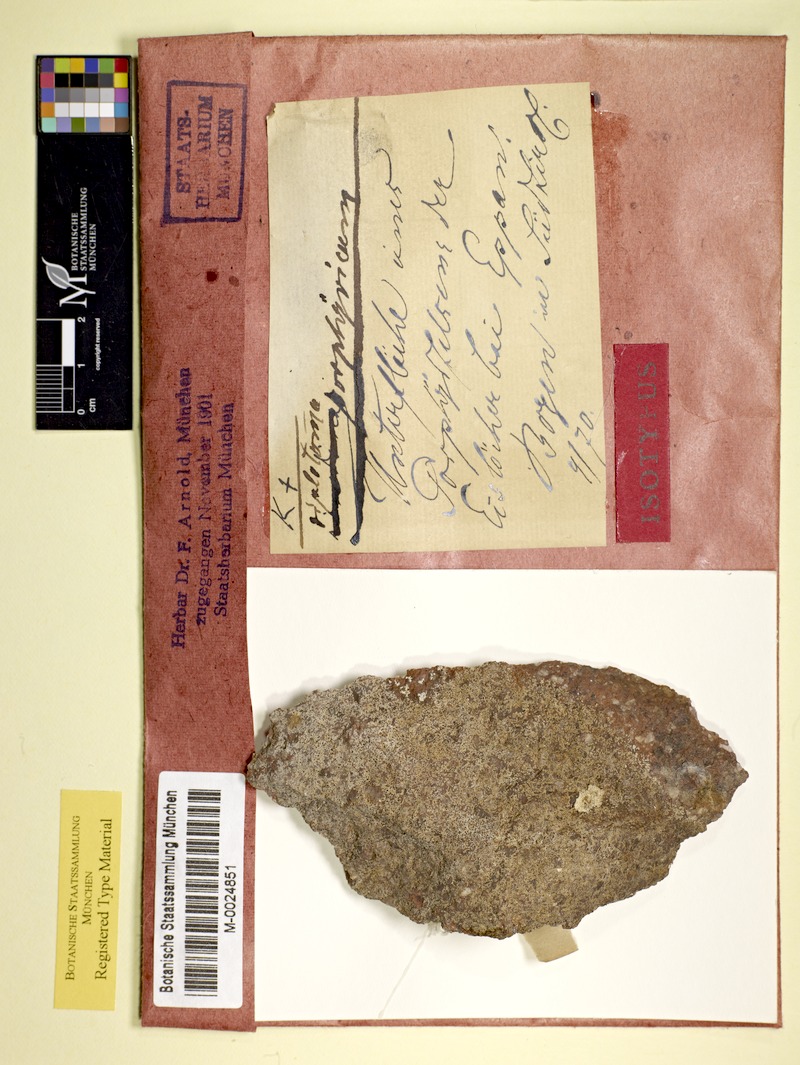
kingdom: Fungi
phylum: Ascomycota
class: Lecanoromycetes
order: Caliciales
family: Caliciaceae
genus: Diplotomma
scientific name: Diplotomma chlorophaeum
